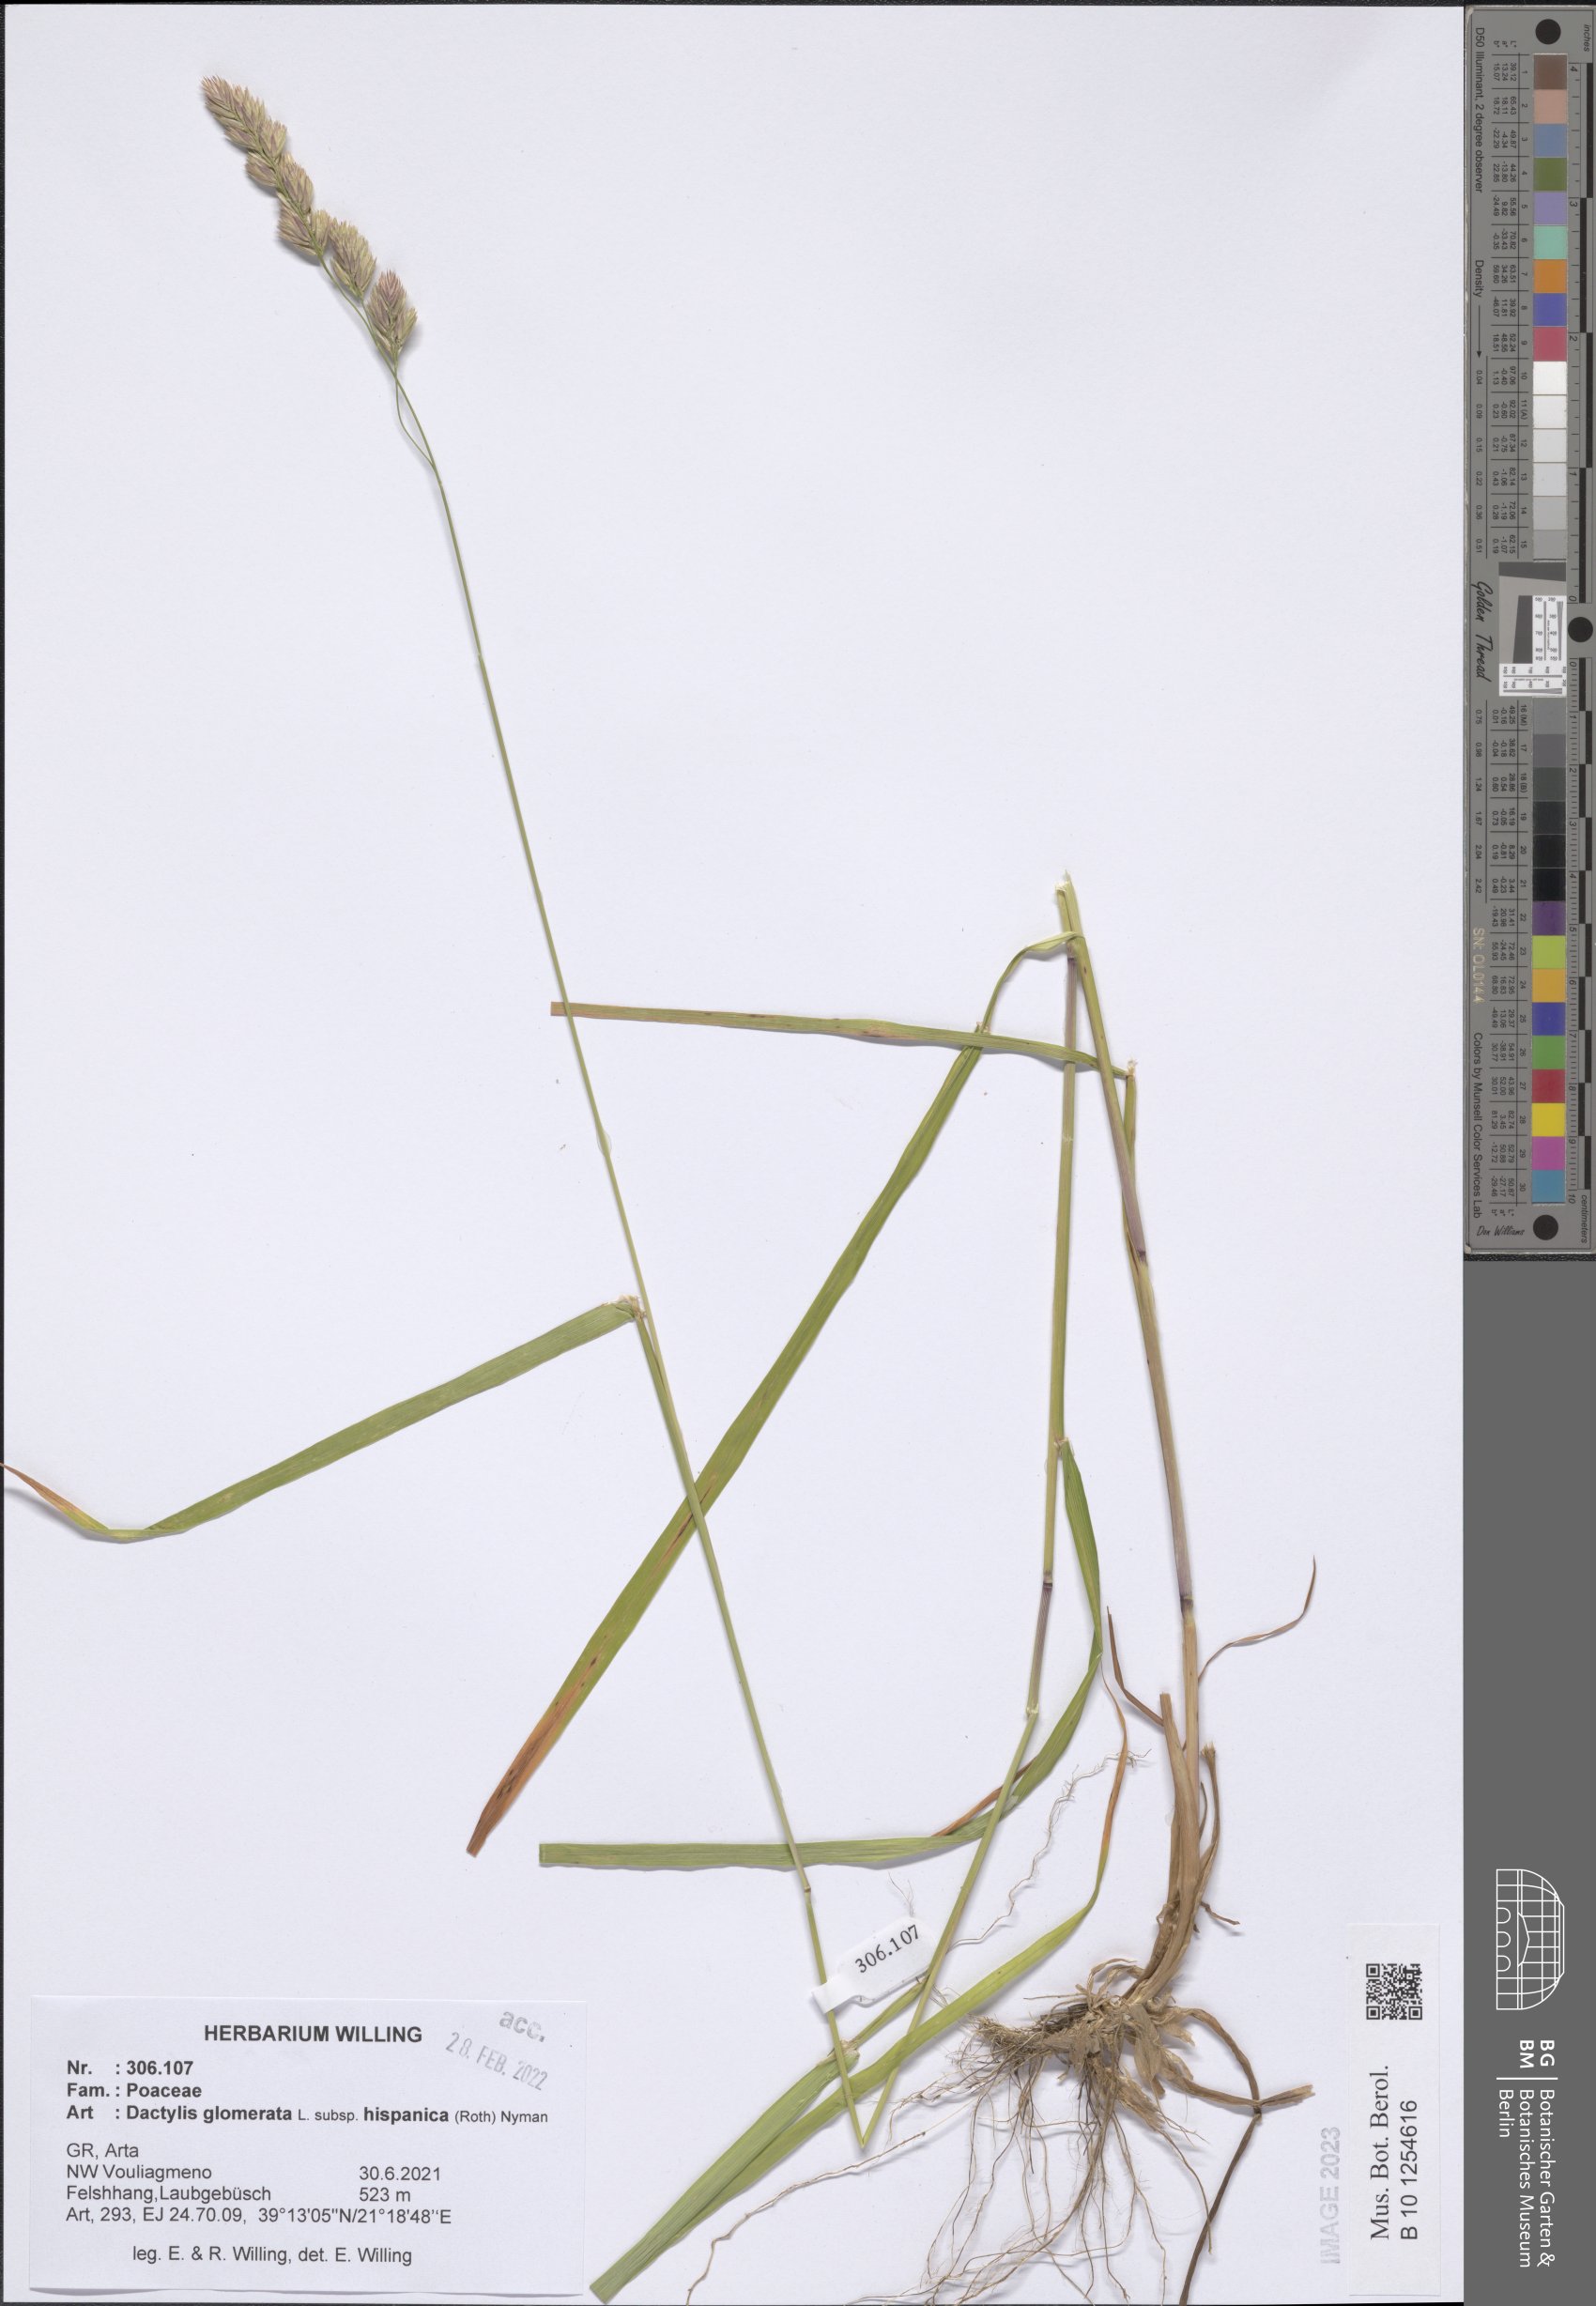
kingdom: Plantae
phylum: Tracheophyta
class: Liliopsida
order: Poales
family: Poaceae
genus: Dactylis
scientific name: Dactylis glomerata
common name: Orchardgrass
